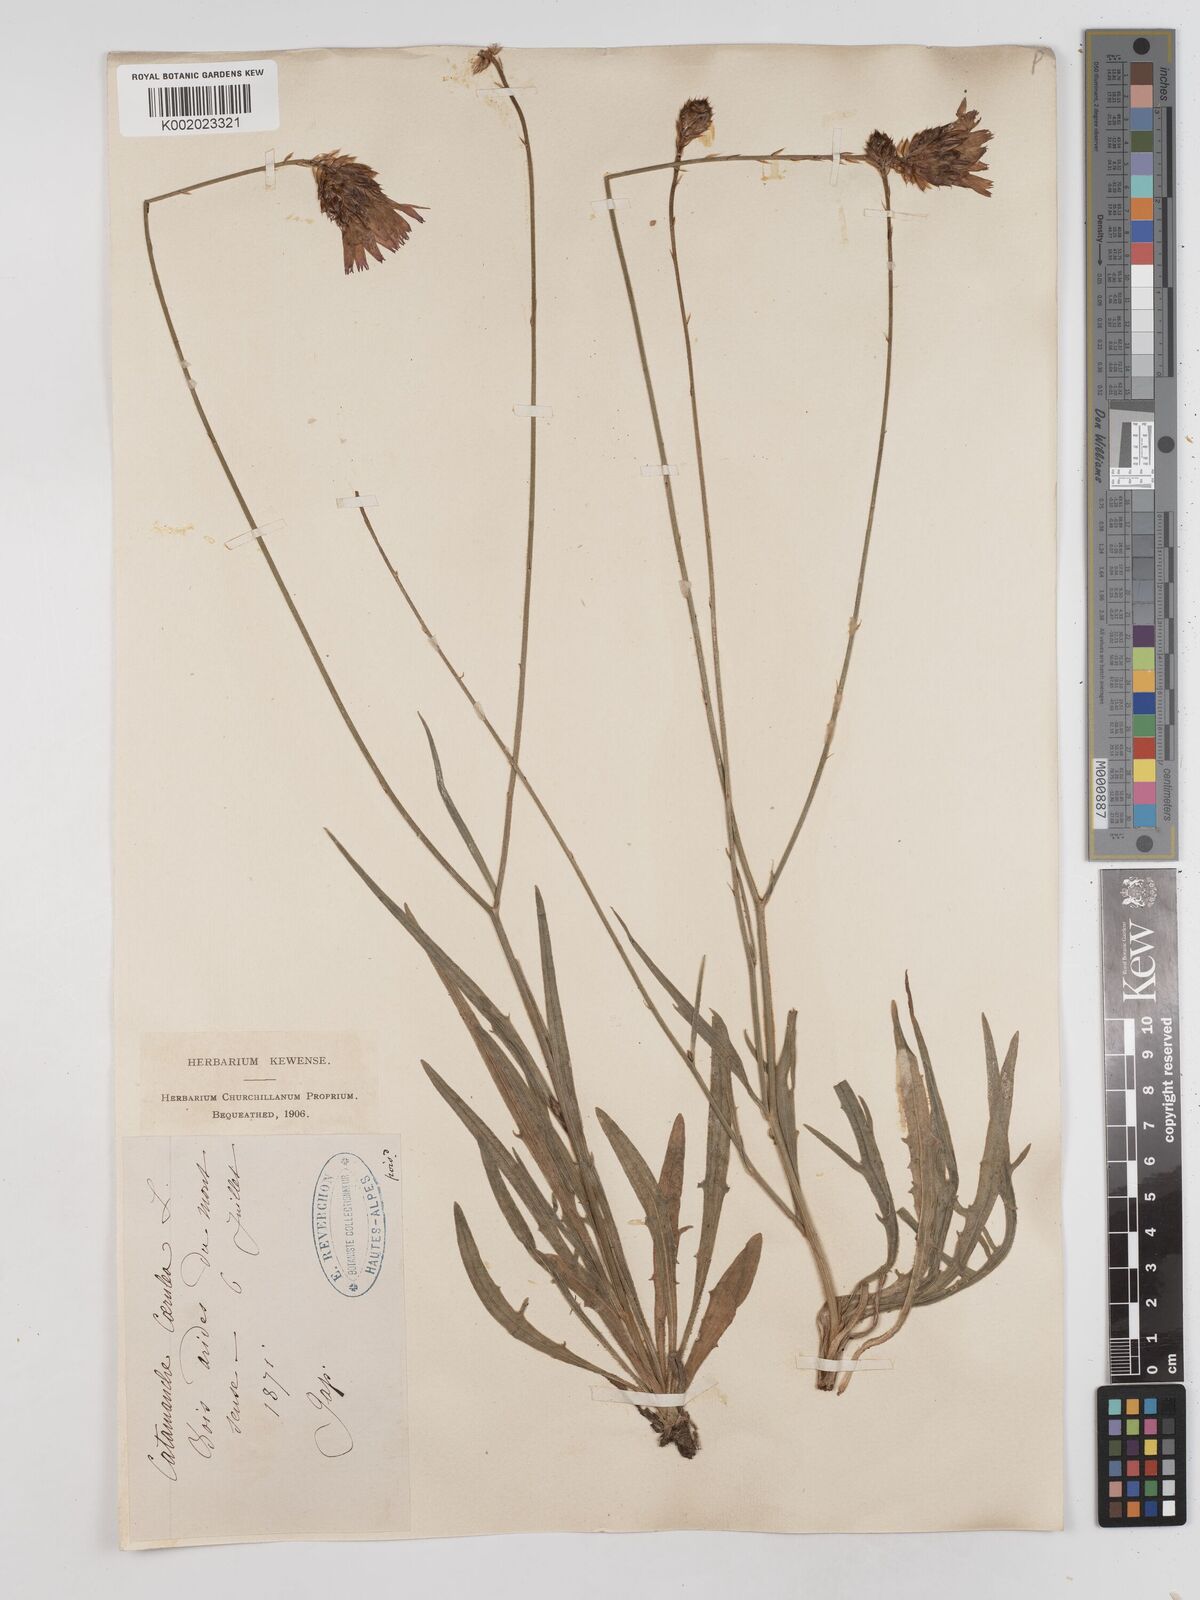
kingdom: Plantae
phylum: Tracheophyta
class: Magnoliopsida
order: Asterales
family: Asteraceae
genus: Catananche
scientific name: Catananche caerulea
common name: Blue cupidone
